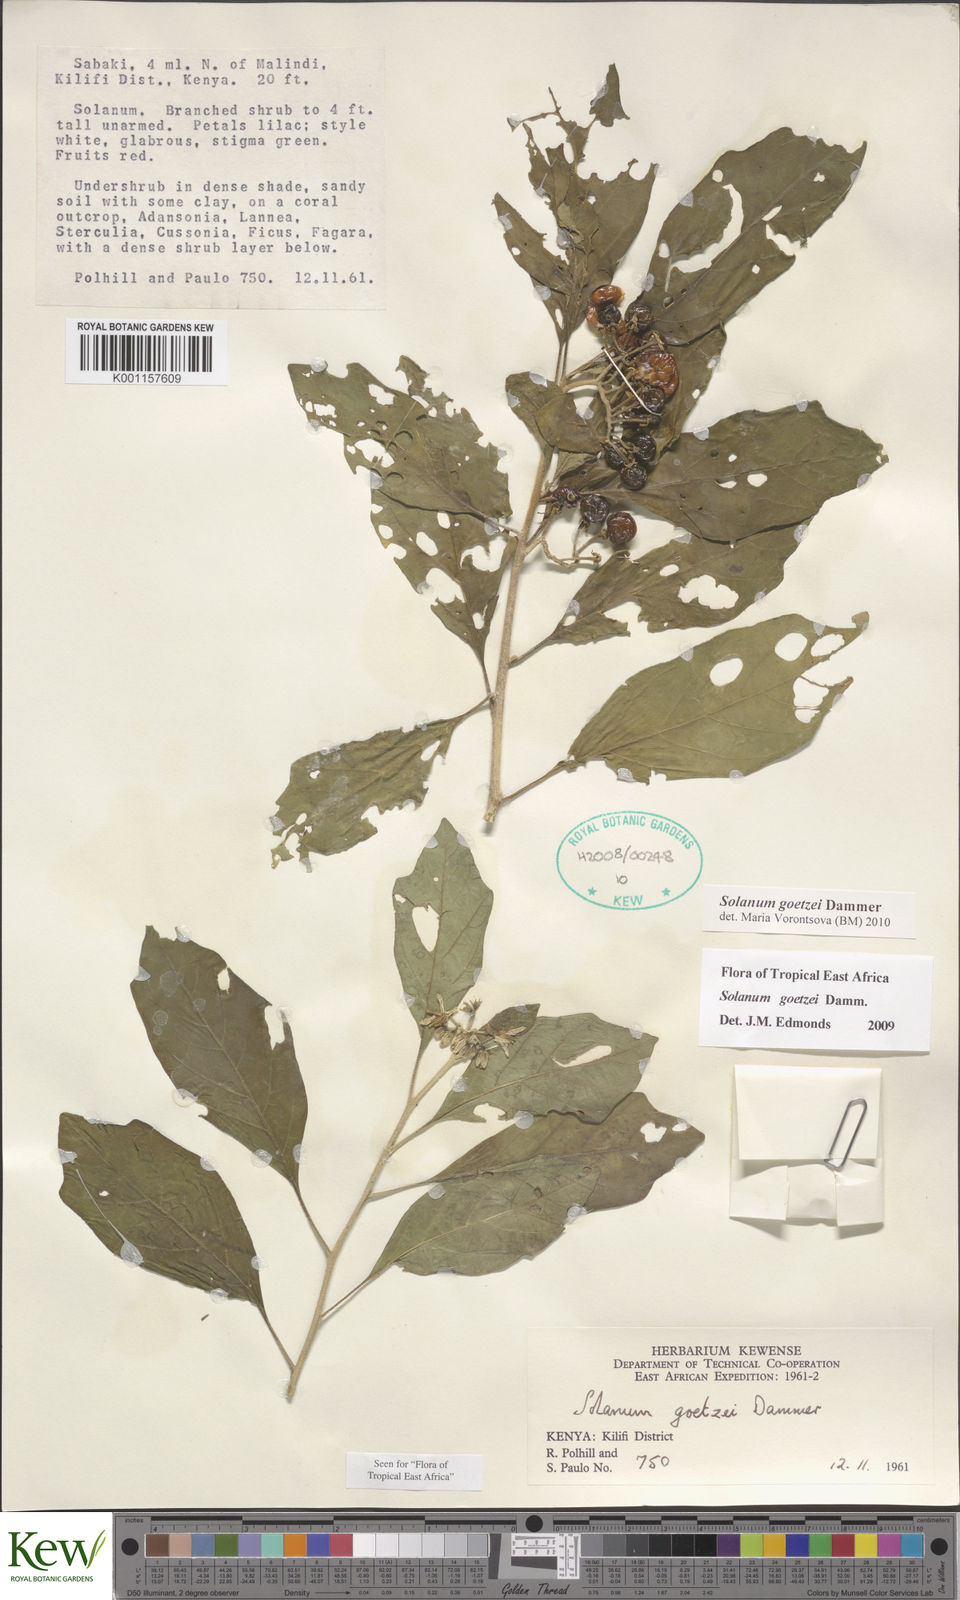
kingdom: Plantae
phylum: Tracheophyta
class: Magnoliopsida
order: Solanales
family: Solanaceae
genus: Solanum
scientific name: Solanum goetzei
